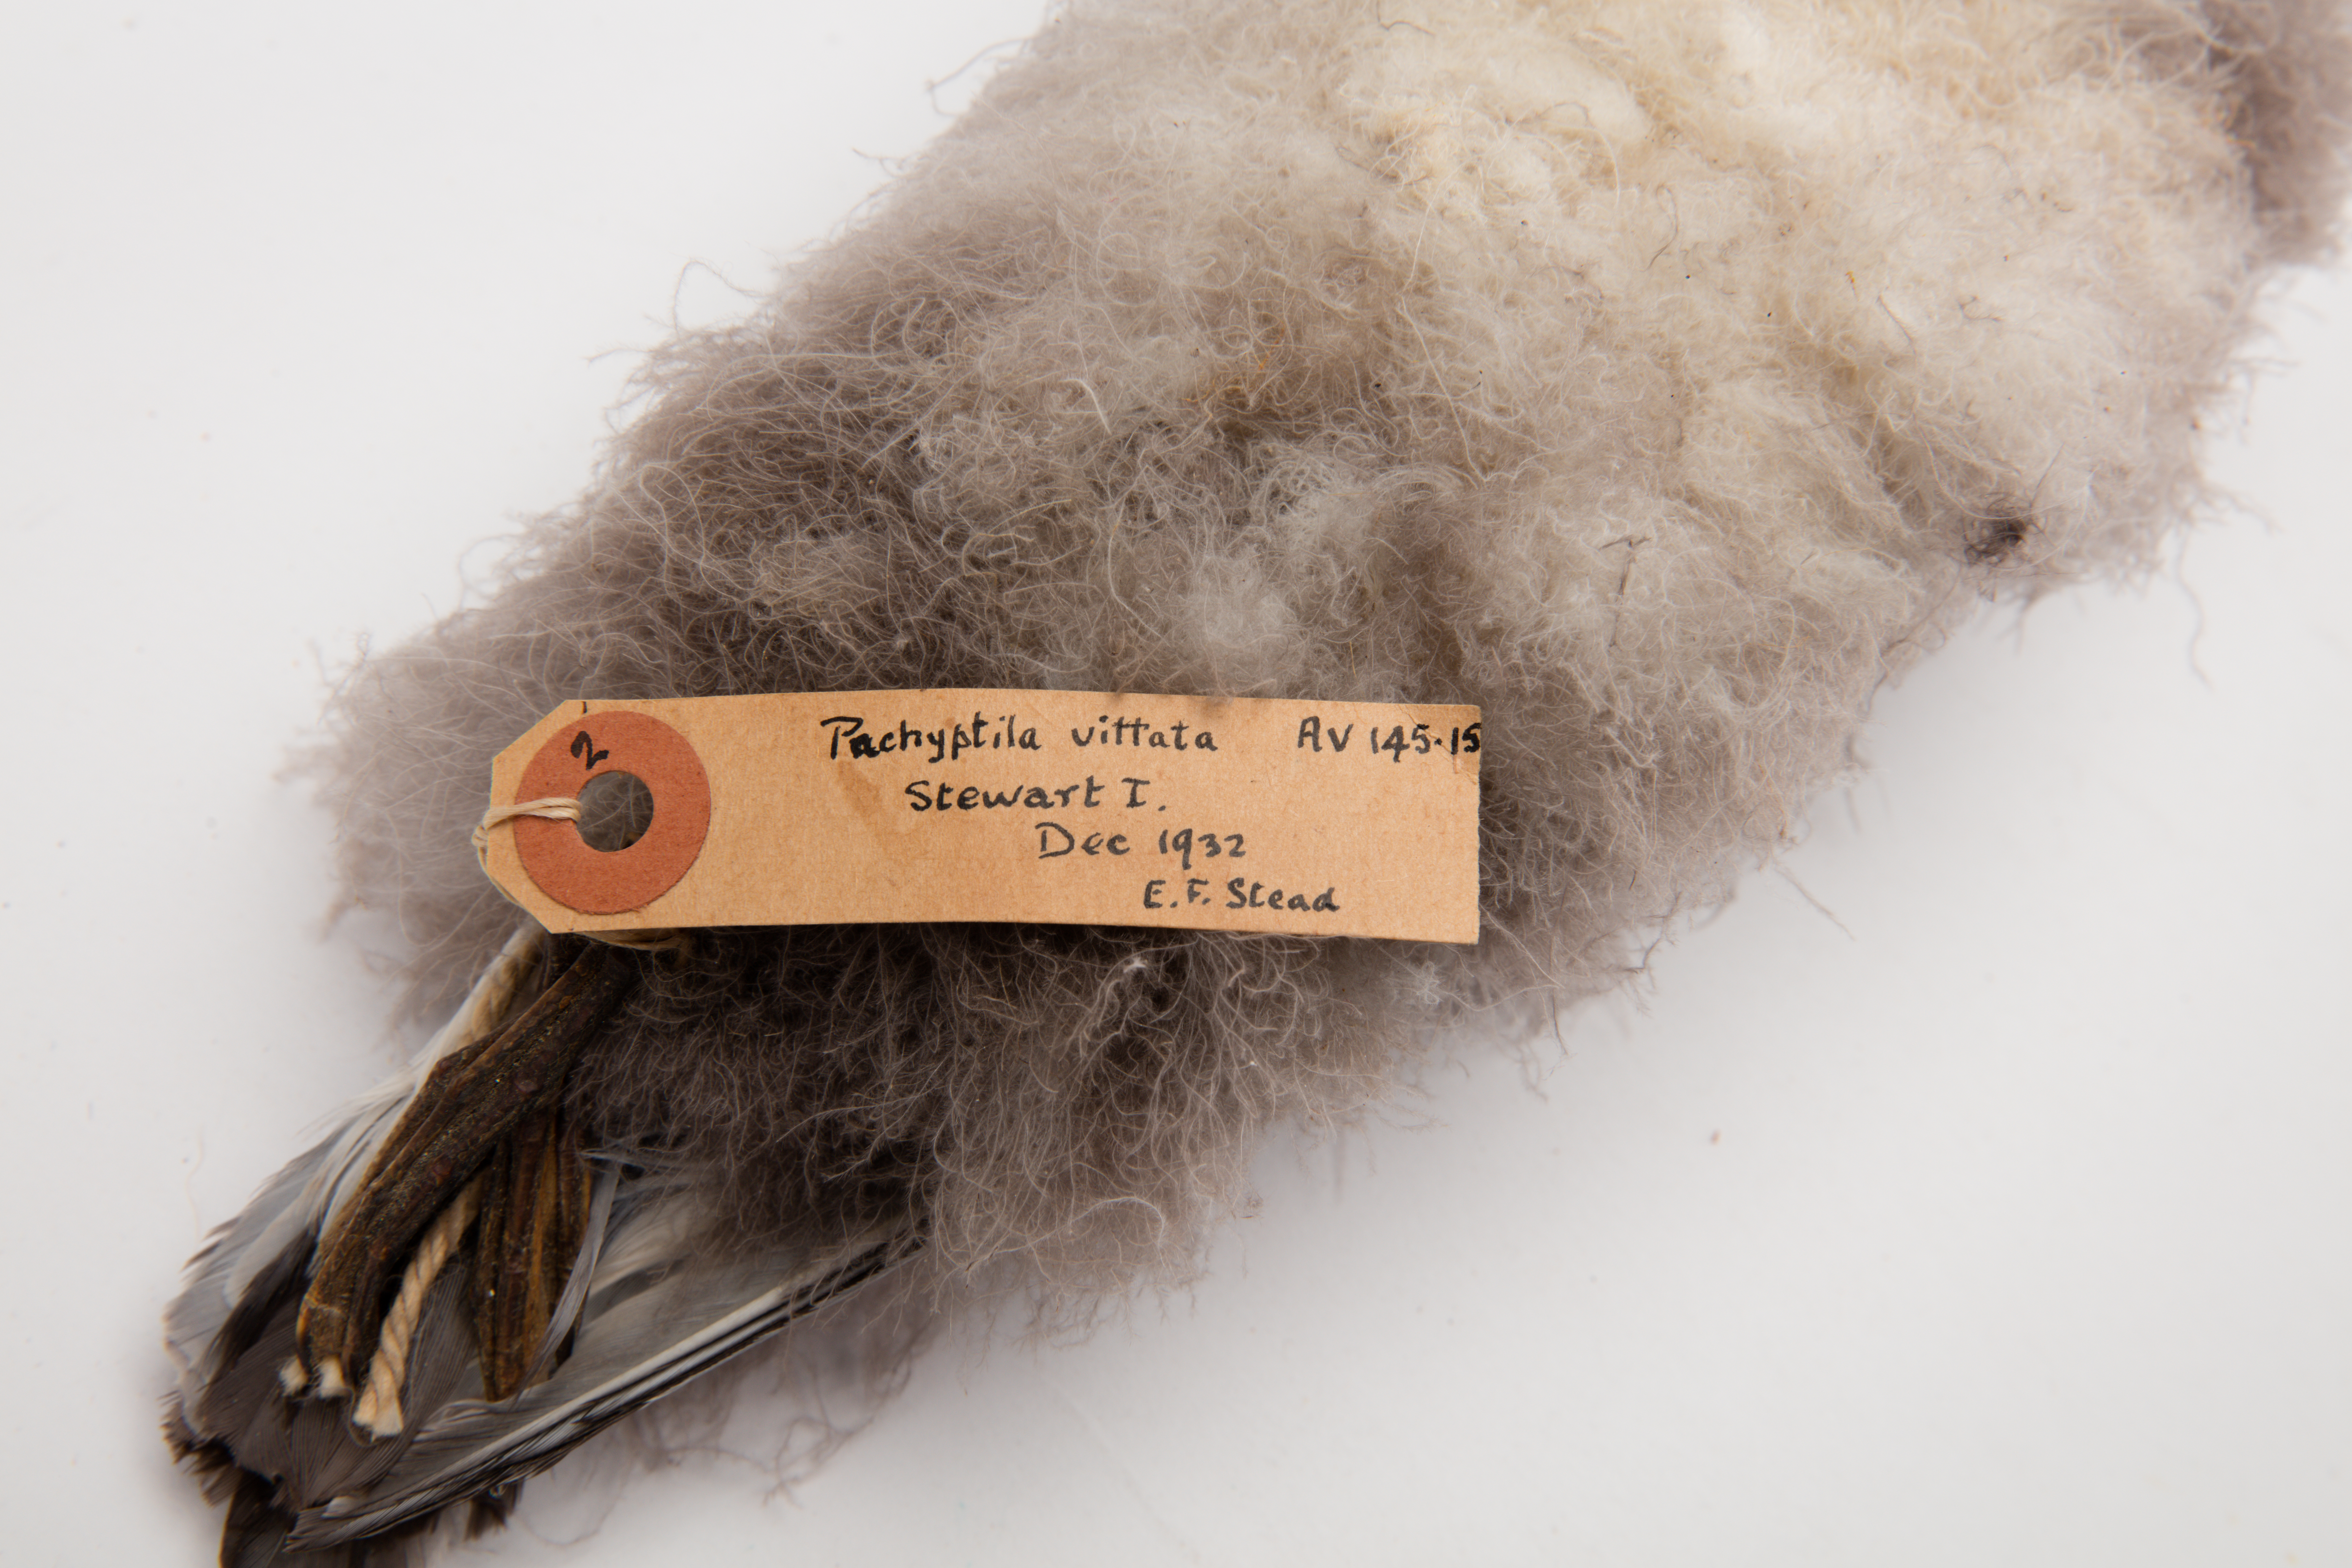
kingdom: Animalia
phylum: Chordata
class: Aves
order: Procellariiformes
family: Procellariidae
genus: Pachyptila
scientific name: Pachyptila vittata
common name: Broad-billed prion
